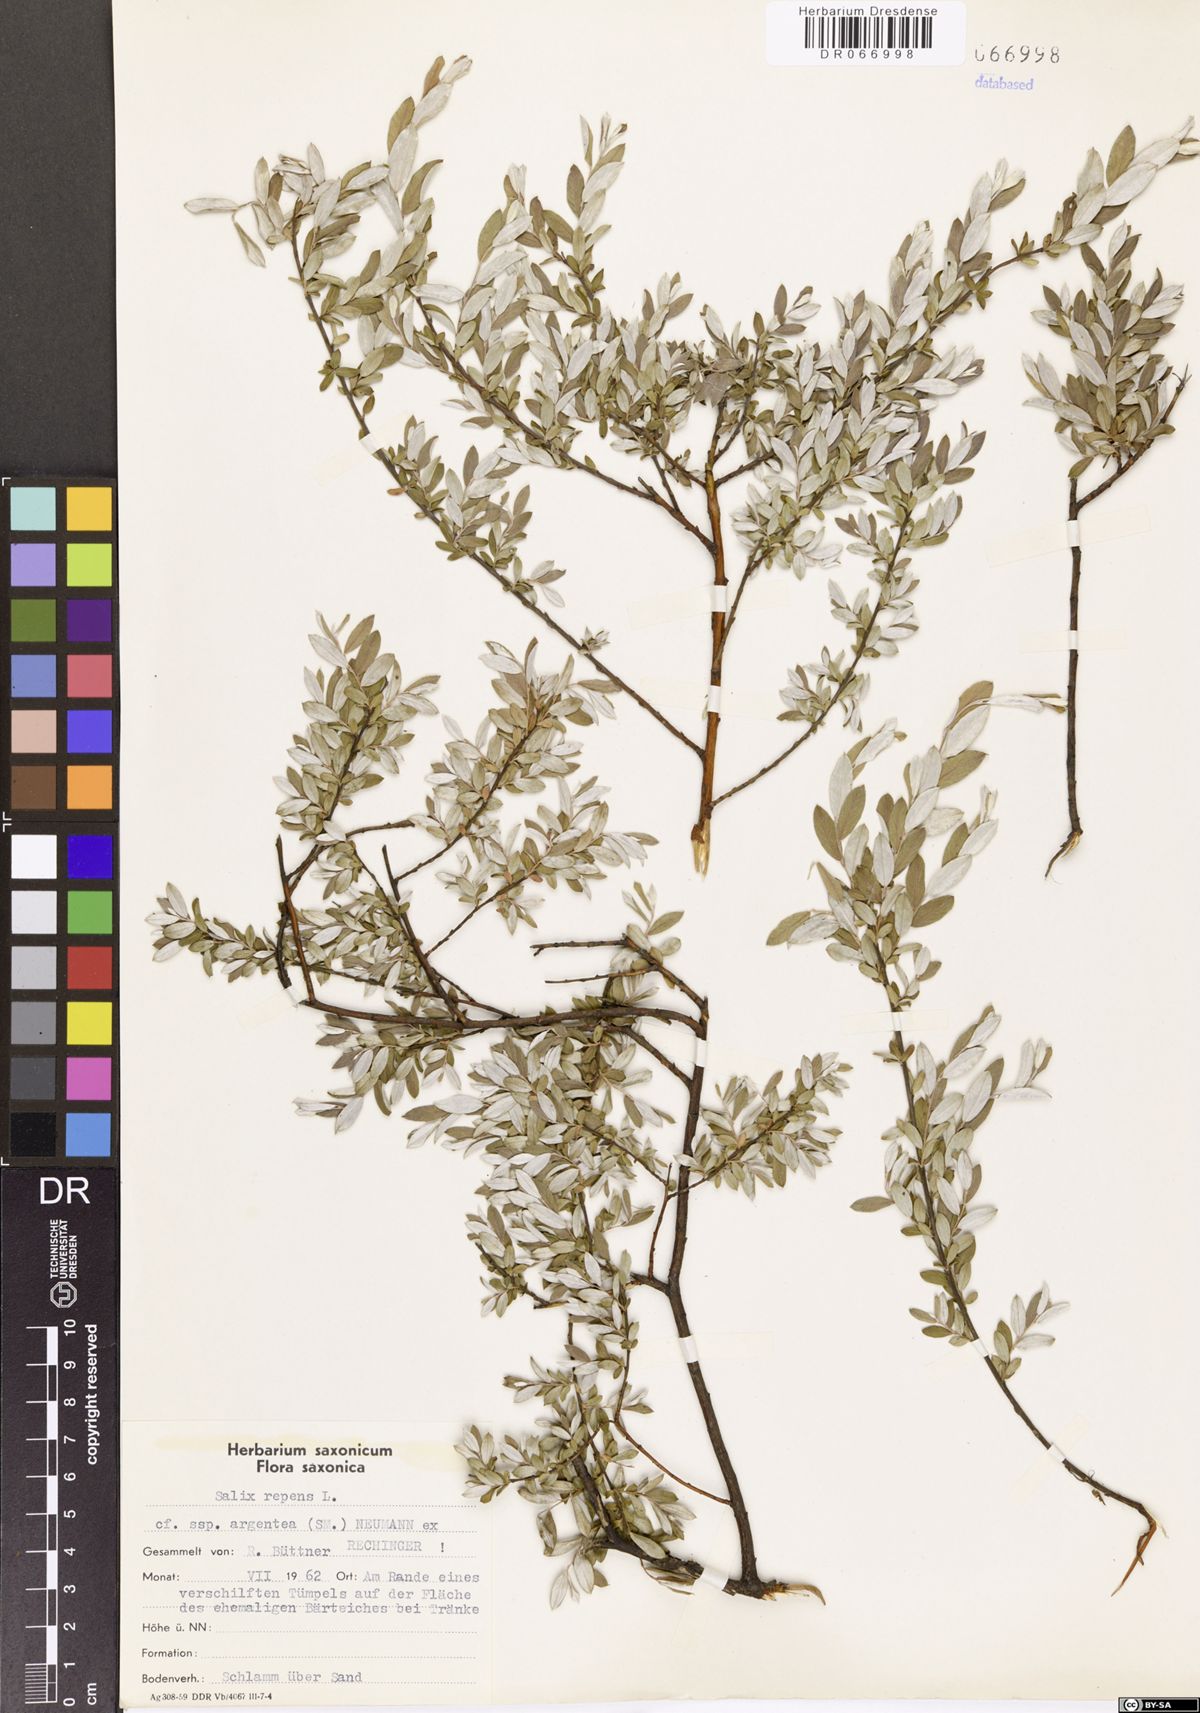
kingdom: Plantae
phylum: Tracheophyta
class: Magnoliopsida
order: Malpighiales
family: Salicaceae
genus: Salix
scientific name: Salix repens
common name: Creeping willow
